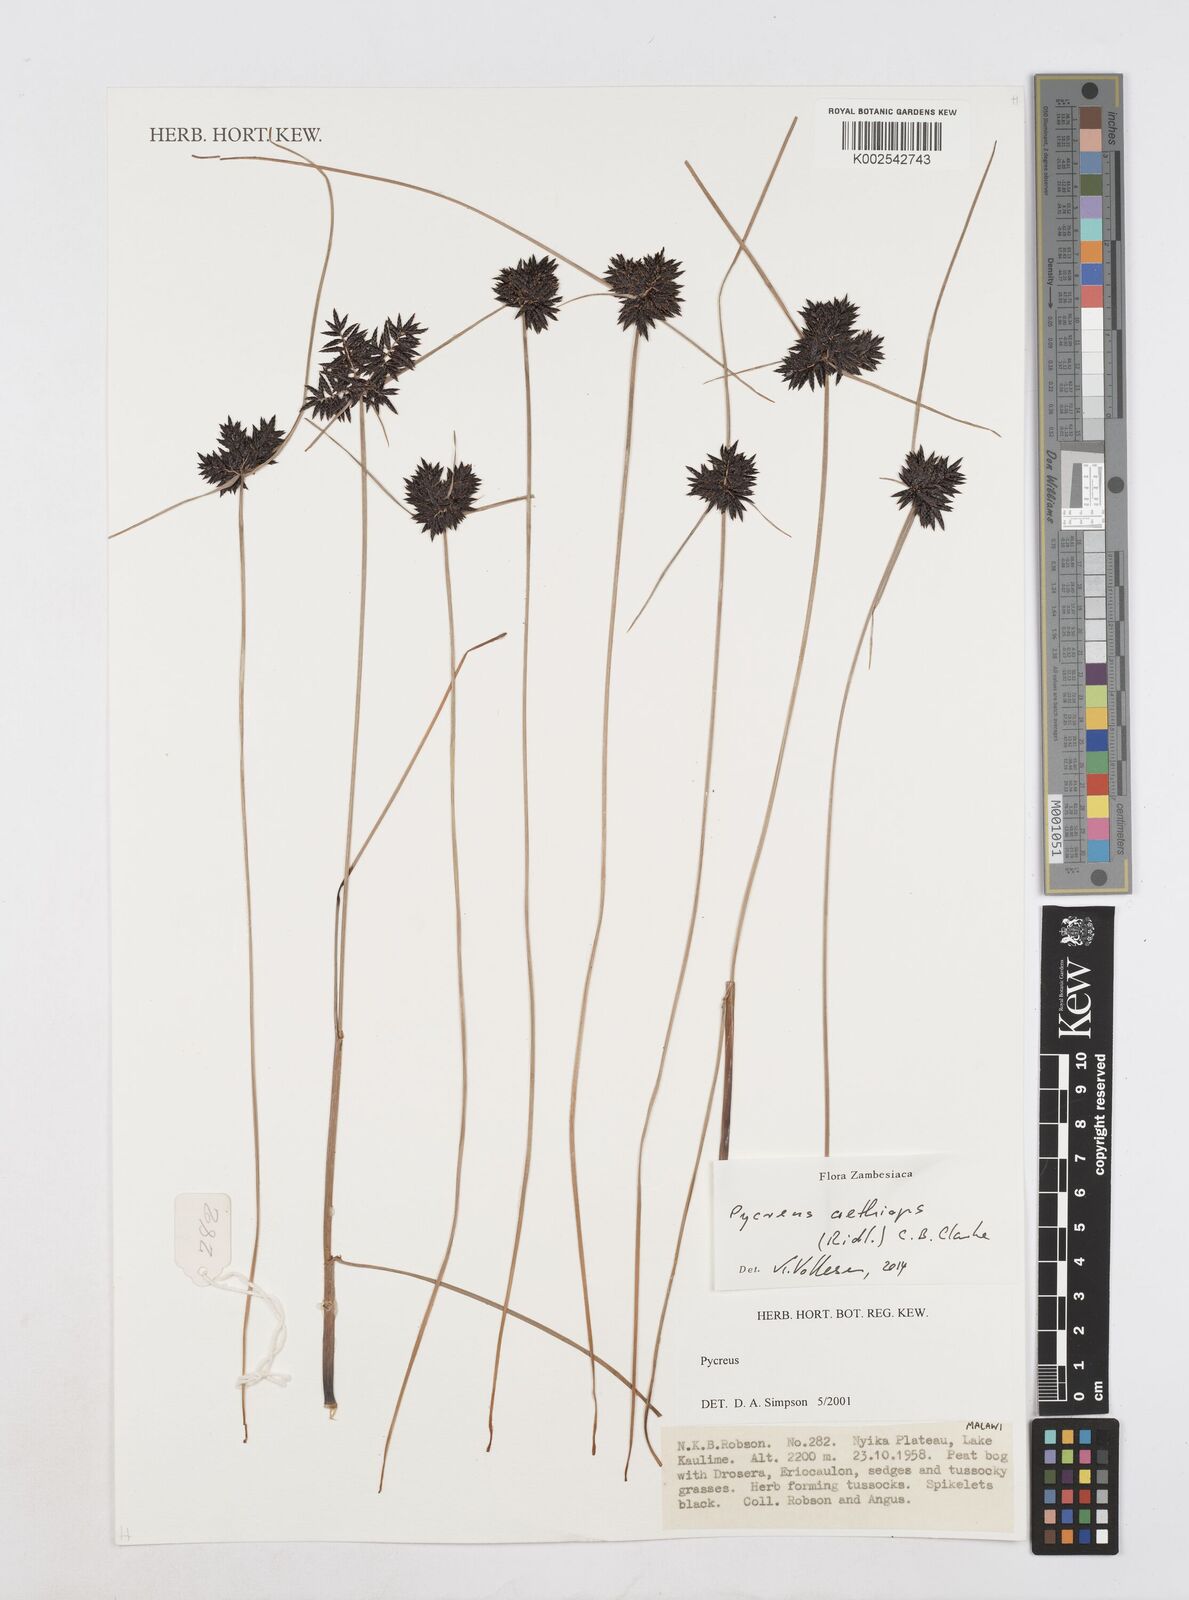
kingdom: Plantae
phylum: Tracheophyta
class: Liliopsida
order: Poales
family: Cyperaceae
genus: Cyperus
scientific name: Cyperus aethiops
